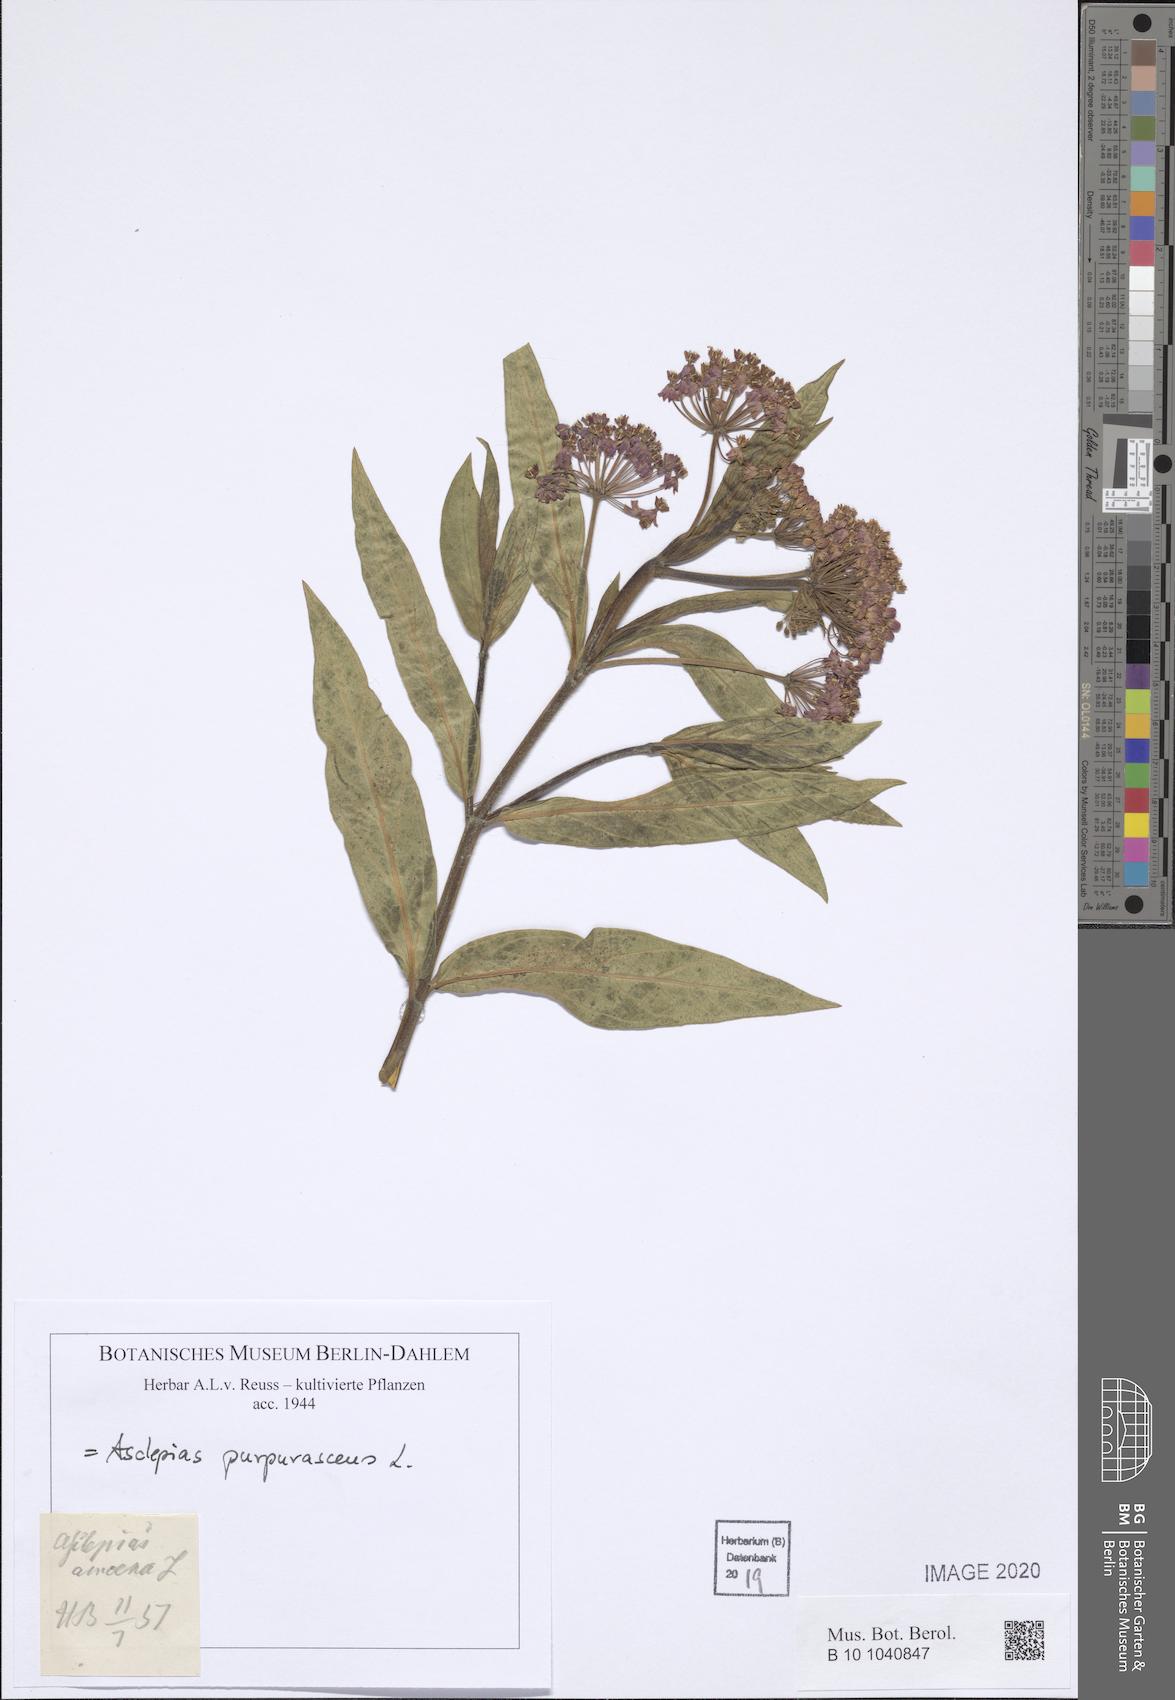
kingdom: Plantae
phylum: Tracheophyta
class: Magnoliopsida
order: Gentianales
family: Apocynaceae
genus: Asclepias
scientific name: Asclepias purpurascens
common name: Purple milkweed
